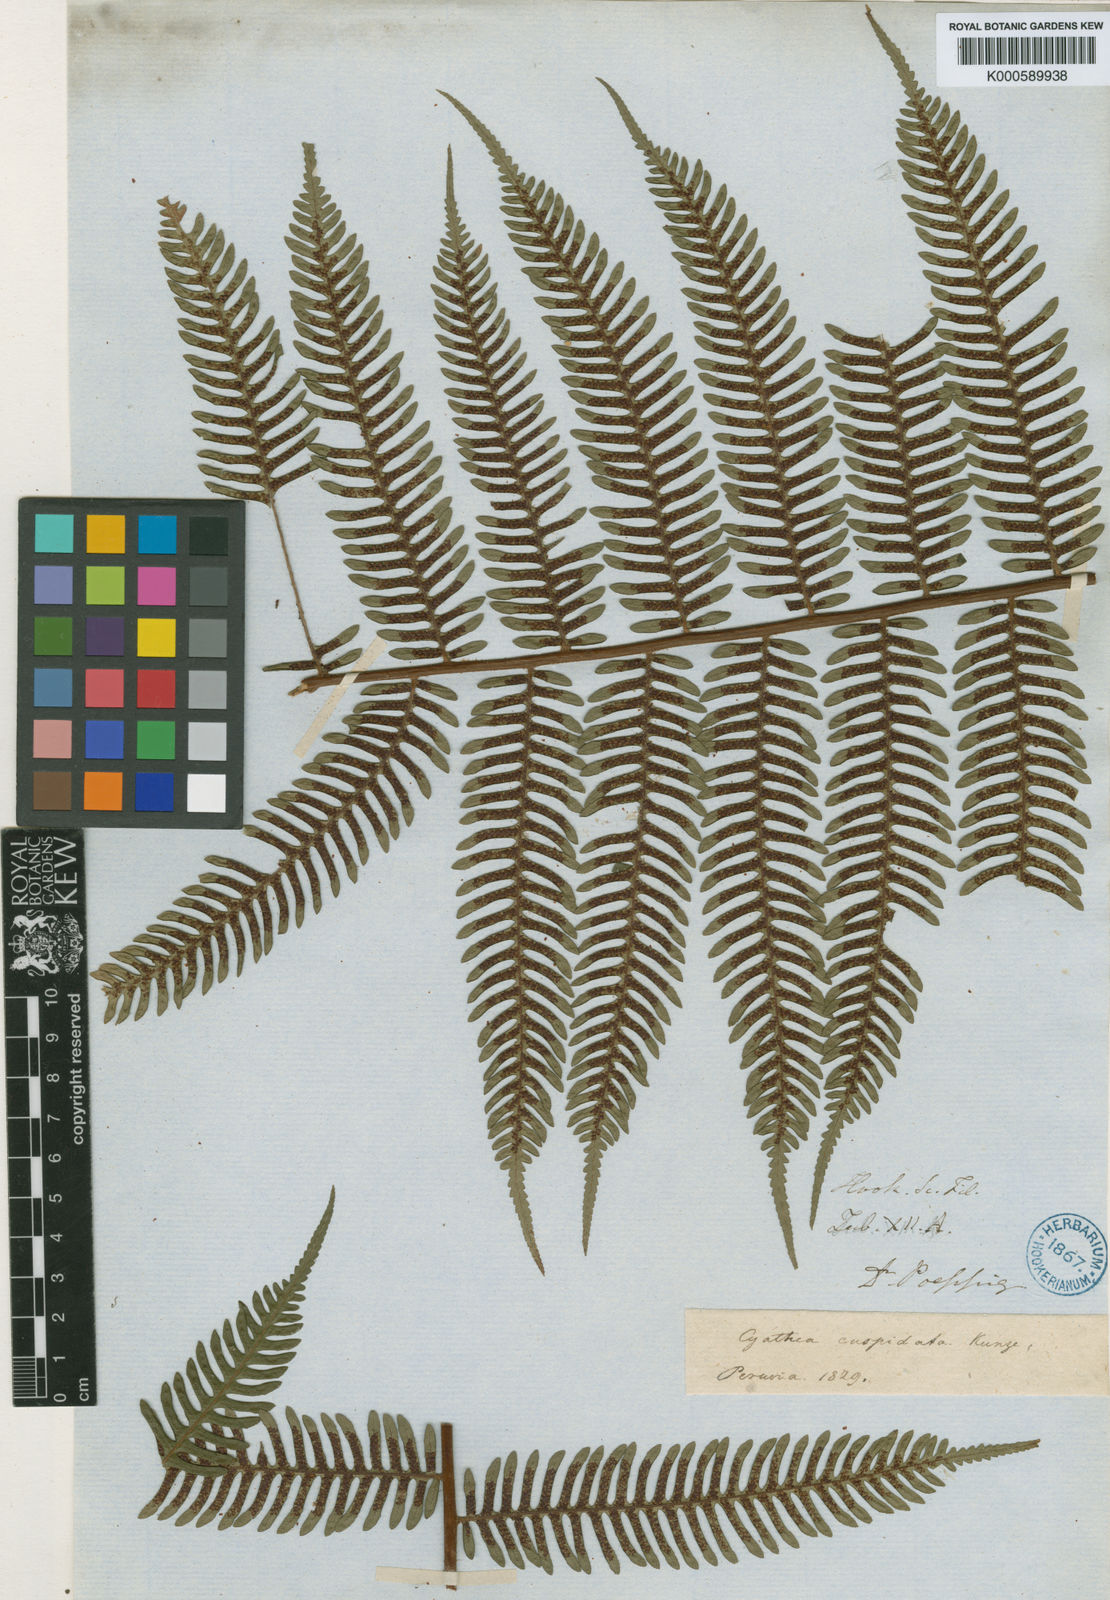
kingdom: Plantae
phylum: Tracheophyta
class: Polypodiopsida
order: Cyatheales
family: Cyatheaceae
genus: Alsophila
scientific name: Alsophila cuspidata
